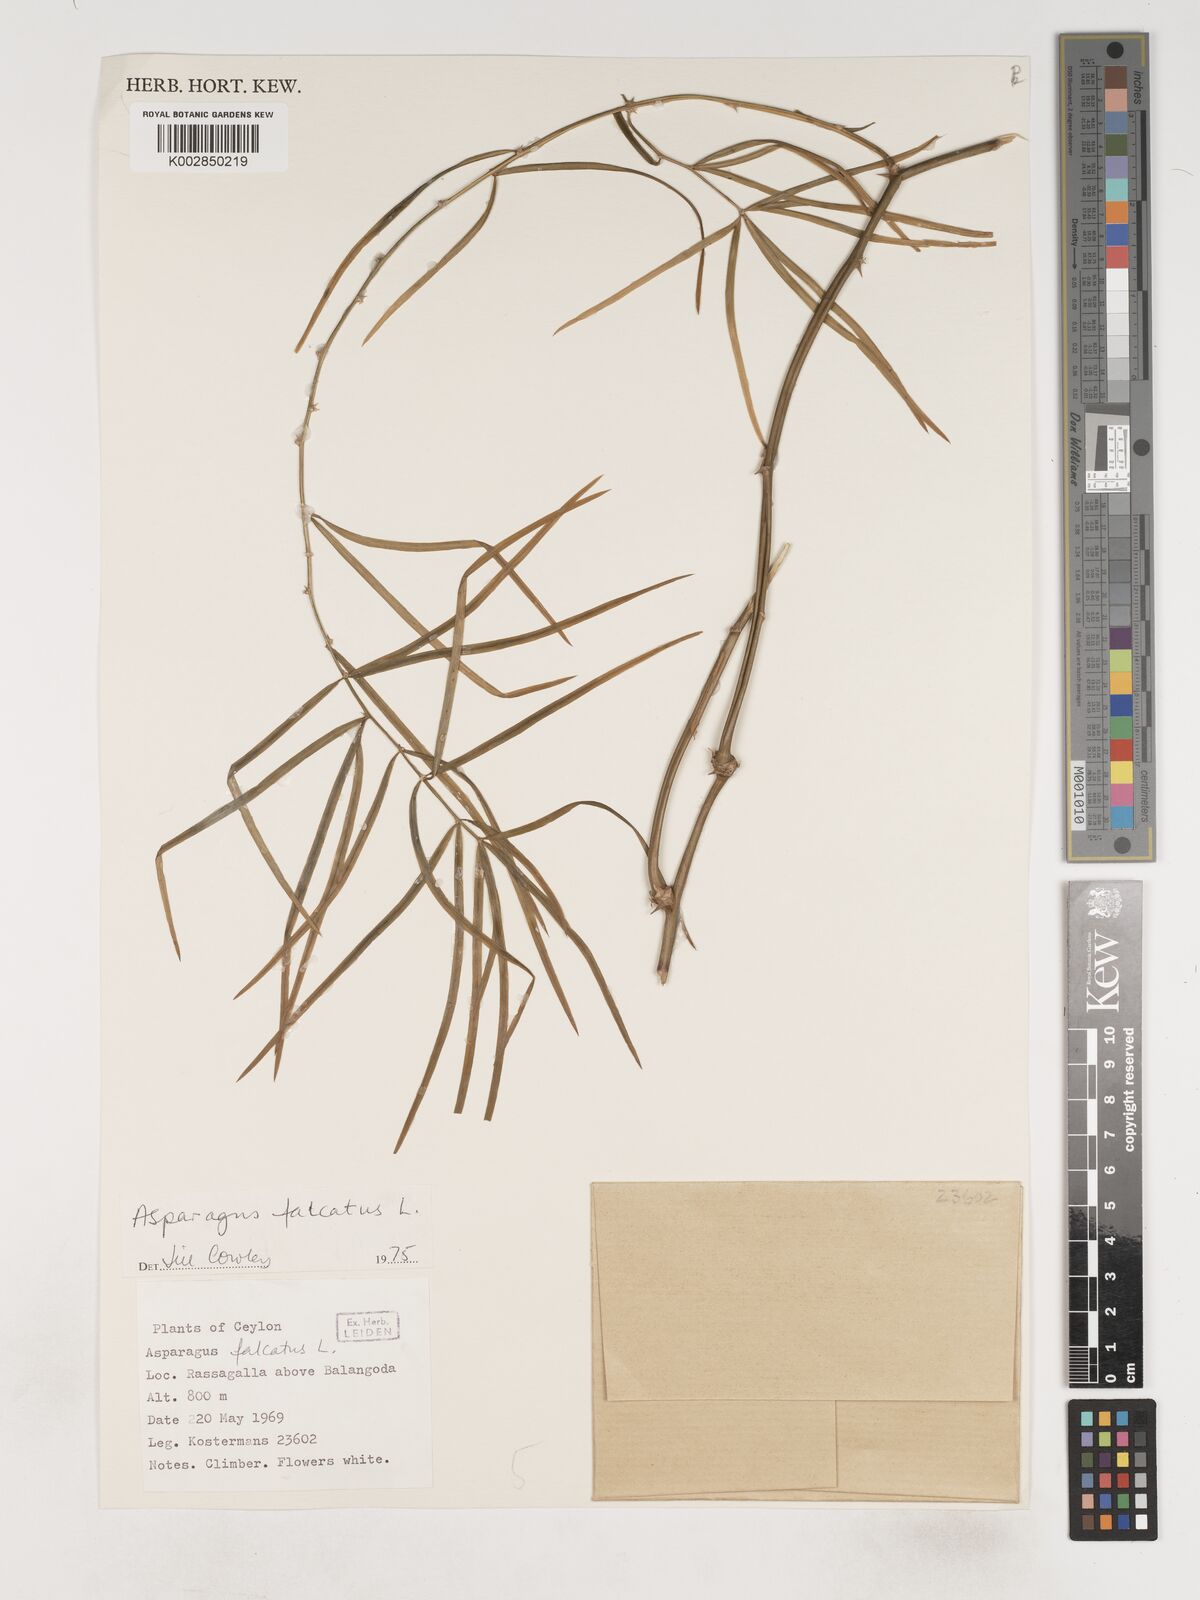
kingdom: Plantae
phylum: Tracheophyta
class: Liliopsida
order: Asparagales
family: Asparagaceae
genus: Asparagus
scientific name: Asparagus falcatus
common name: Asparagus
